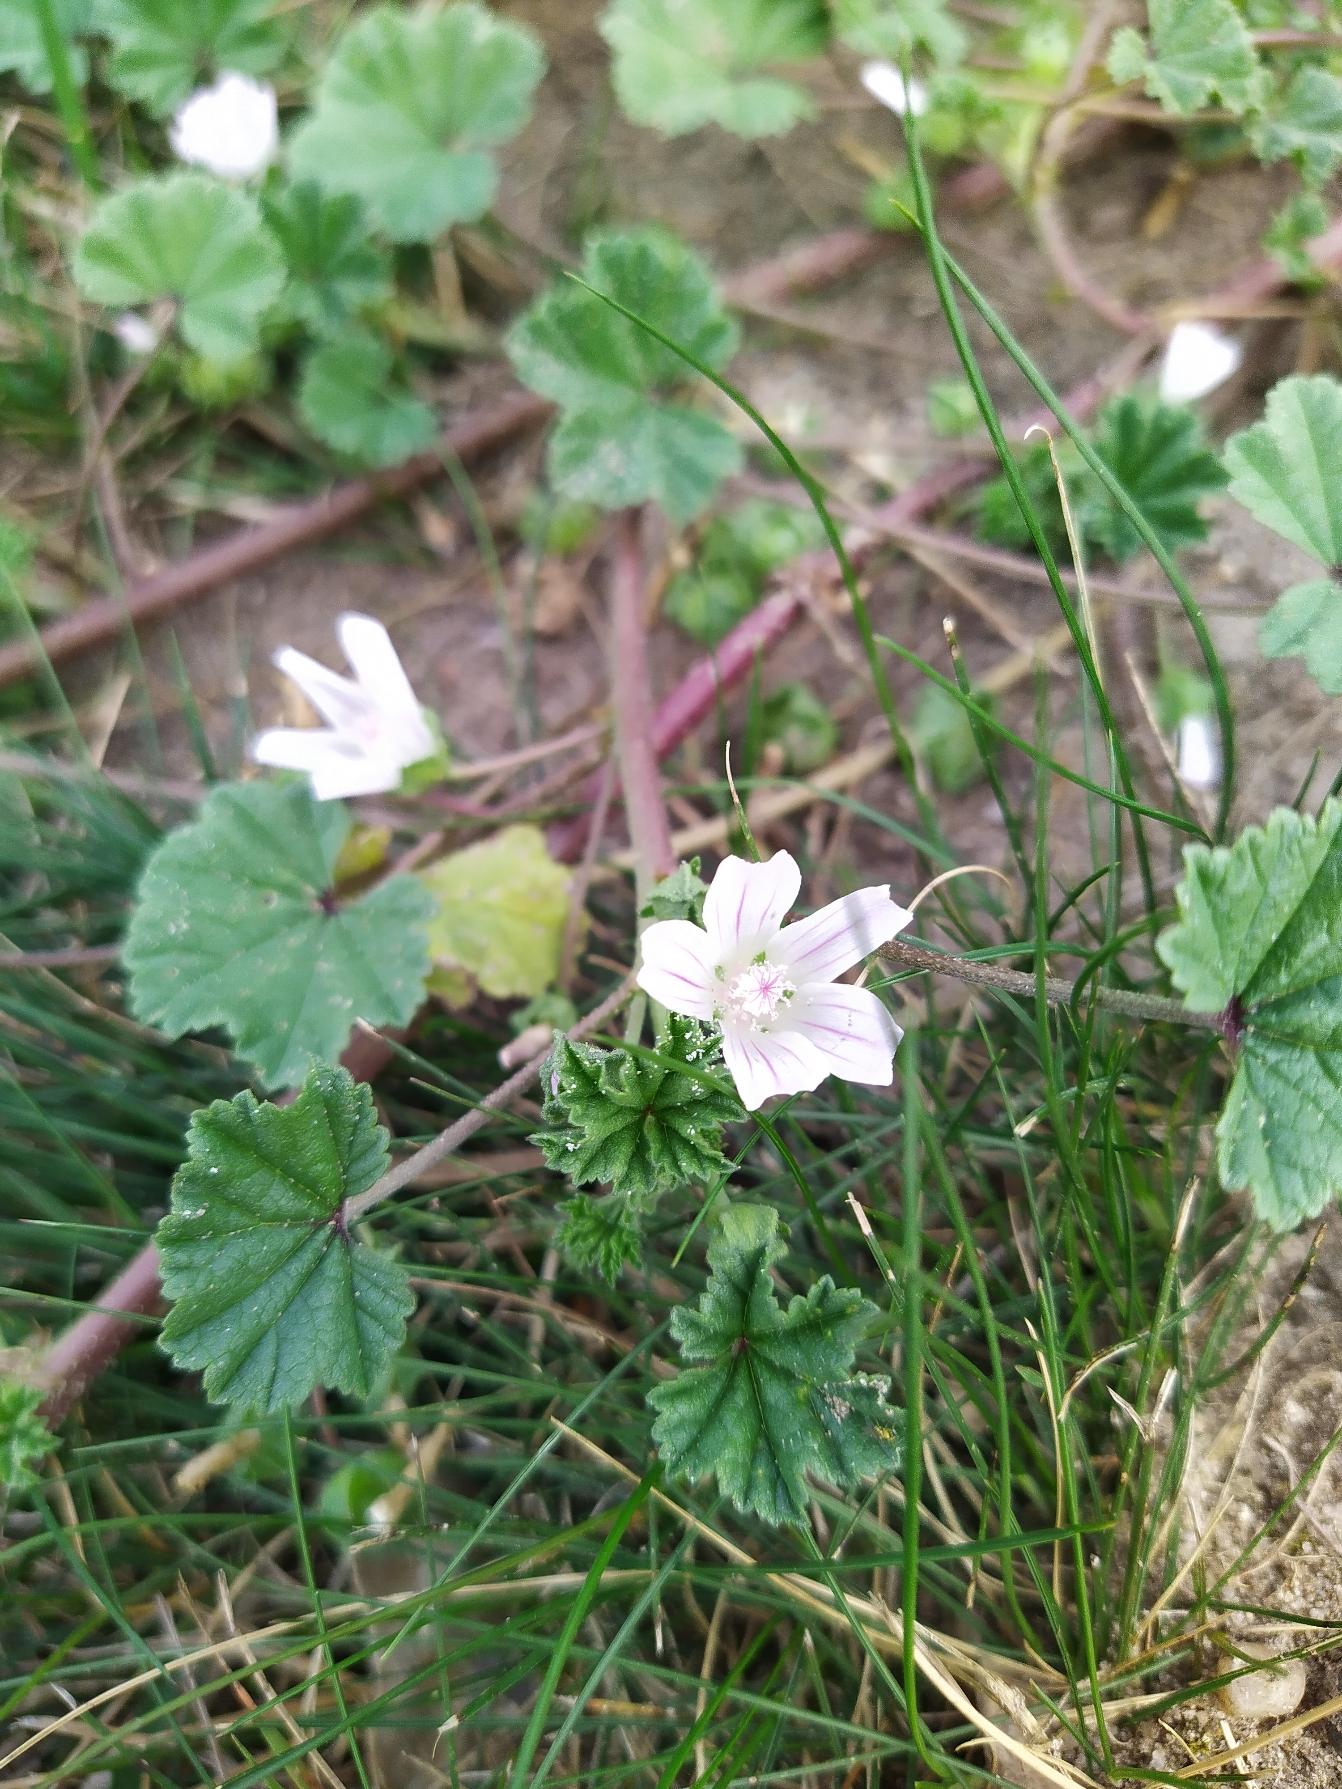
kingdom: Plantae
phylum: Tracheophyta
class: Magnoliopsida
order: Malvales
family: Malvaceae
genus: Malva
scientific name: Malva neglecta
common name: Rundbladet katost
